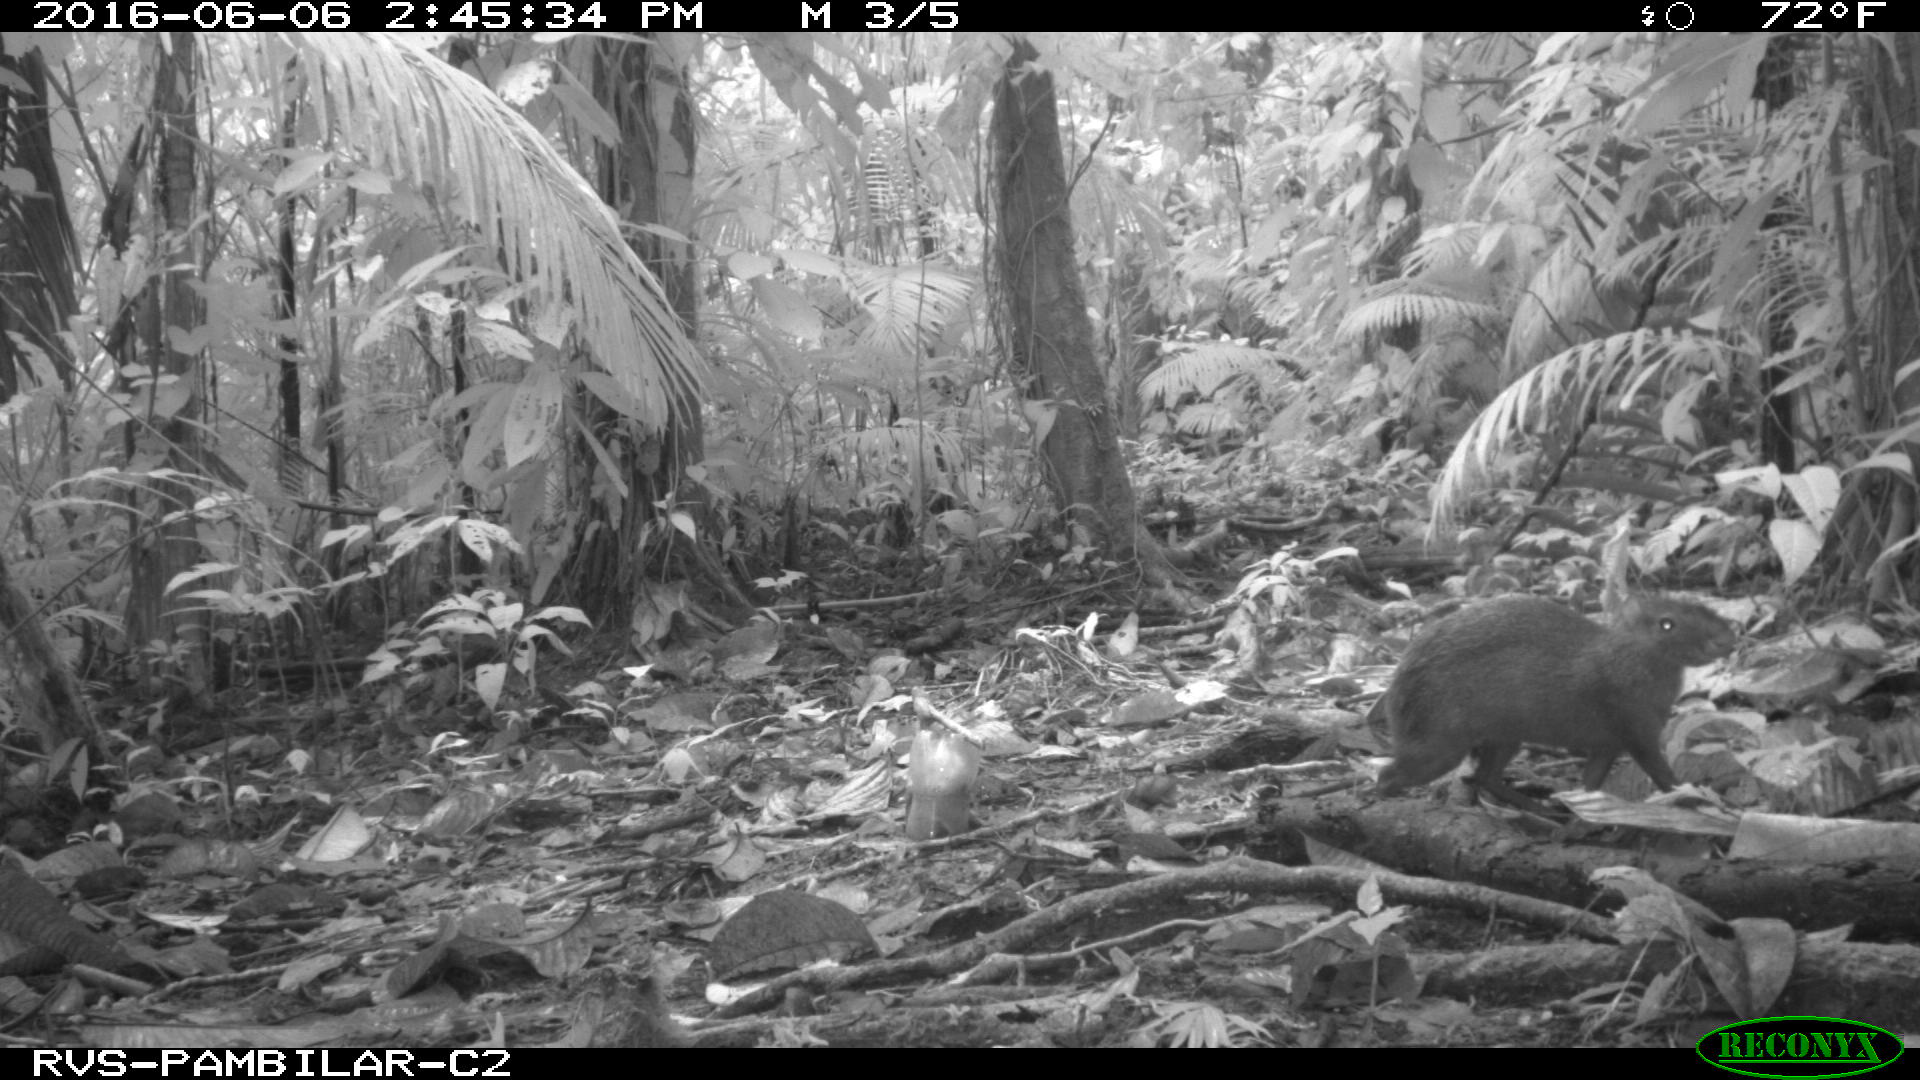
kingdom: Animalia
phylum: Chordata
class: Mammalia
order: Rodentia
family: Dasyproctidae
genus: Dasyprocta
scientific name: Dasyprocta punctata
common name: Central american agouti
